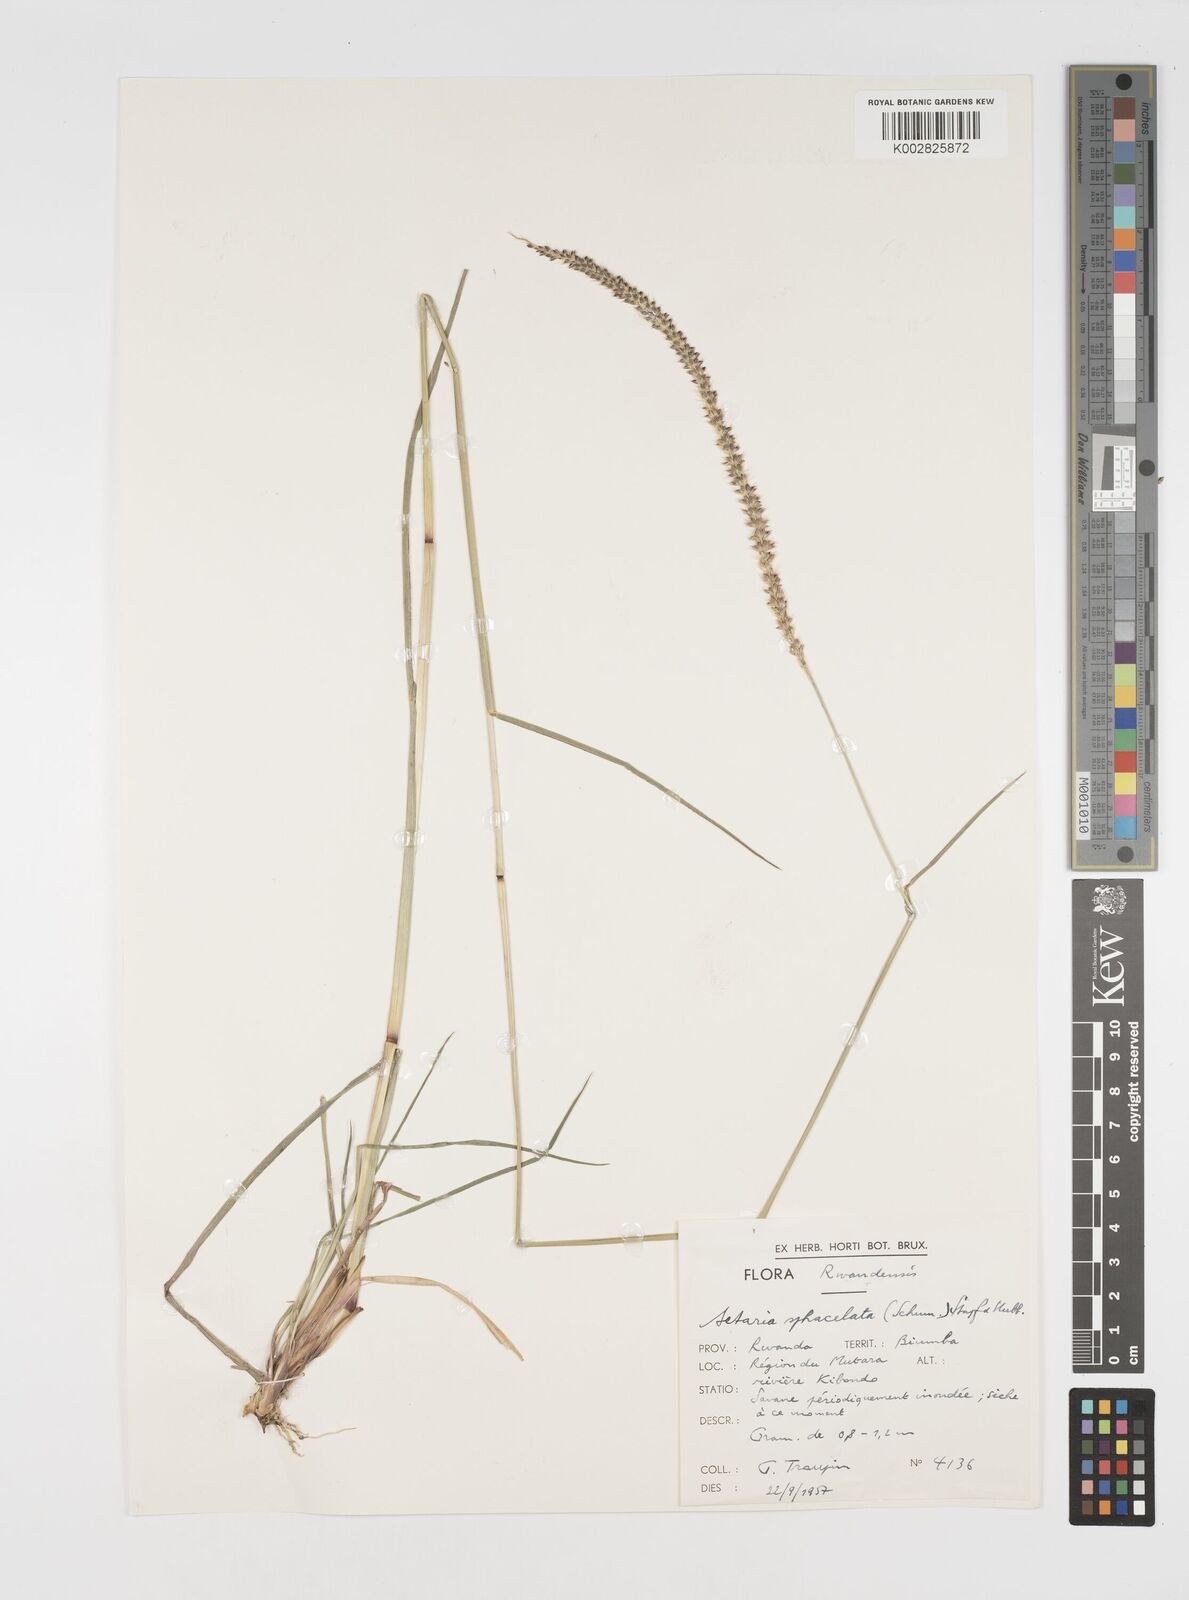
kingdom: Plantae
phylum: Tracheophyta
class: Liliopsida
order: Poales
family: Poaceae
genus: Setaria
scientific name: Setaria sphacelata
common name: African bristlegrass
